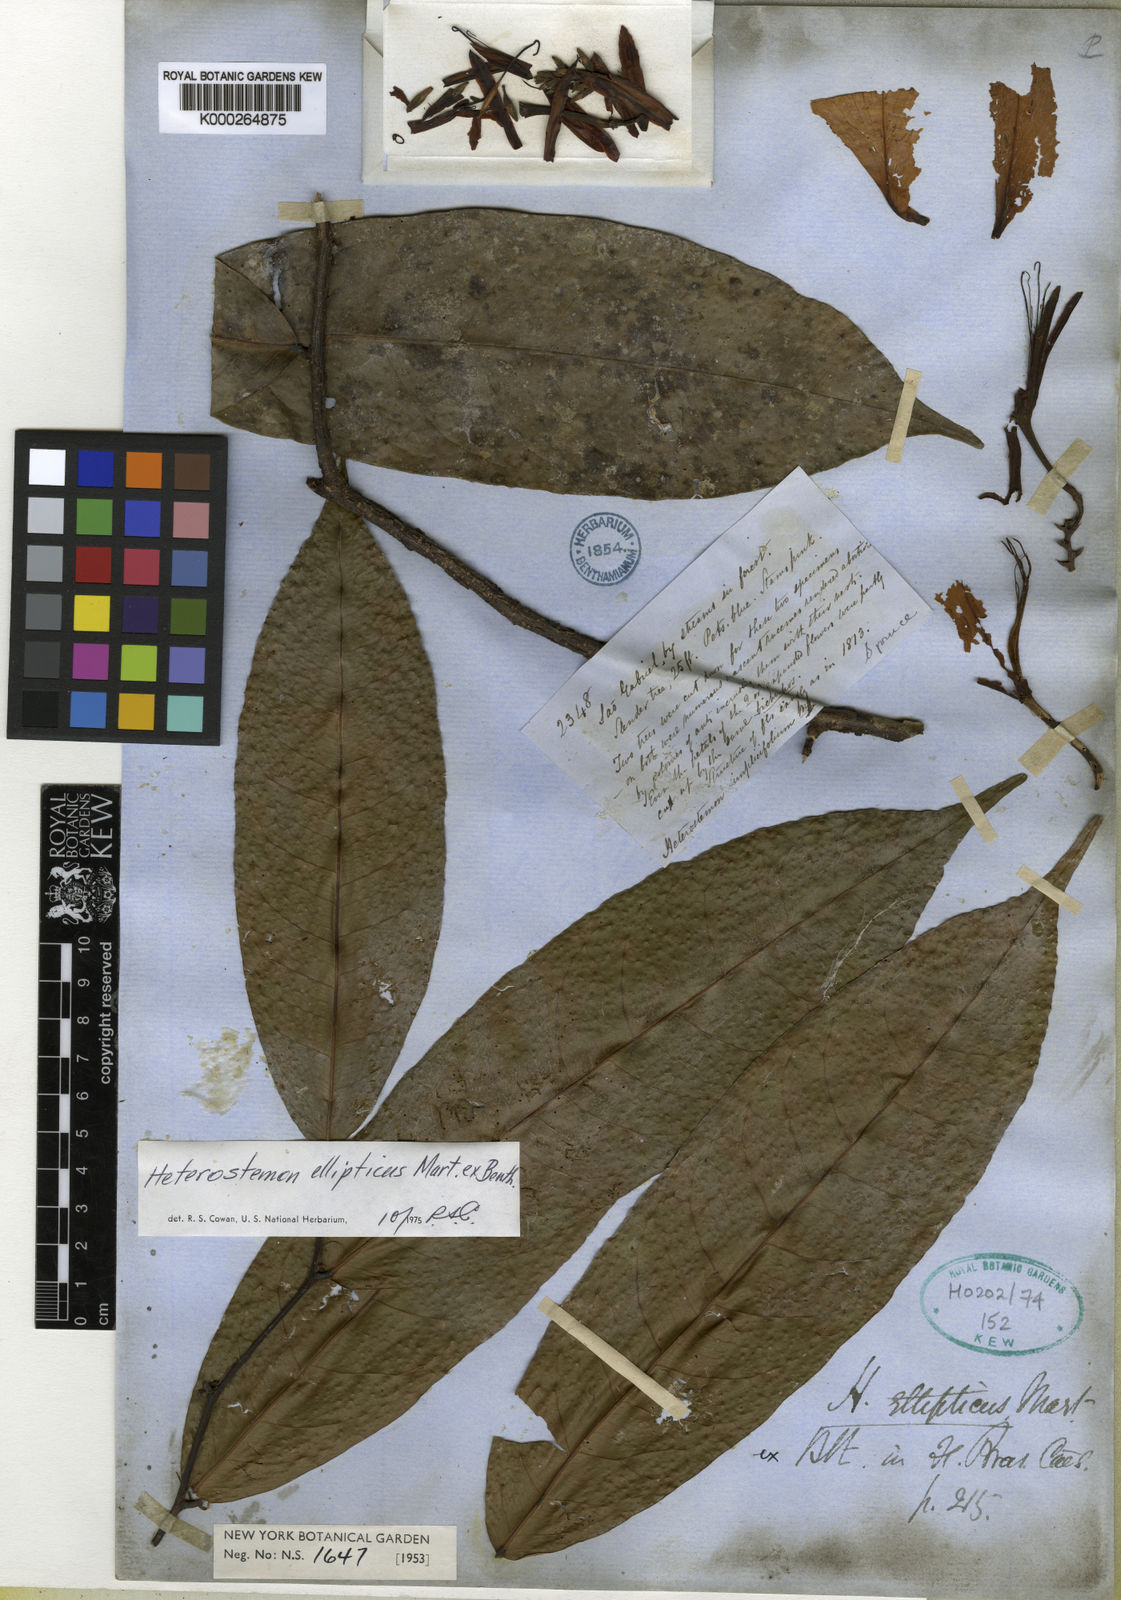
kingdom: Plantae
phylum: Tracheophyta
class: Magnoliopsida
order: Fabales
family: Fabaceae
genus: Heterostemon
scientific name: Heterostemon ellipticus
